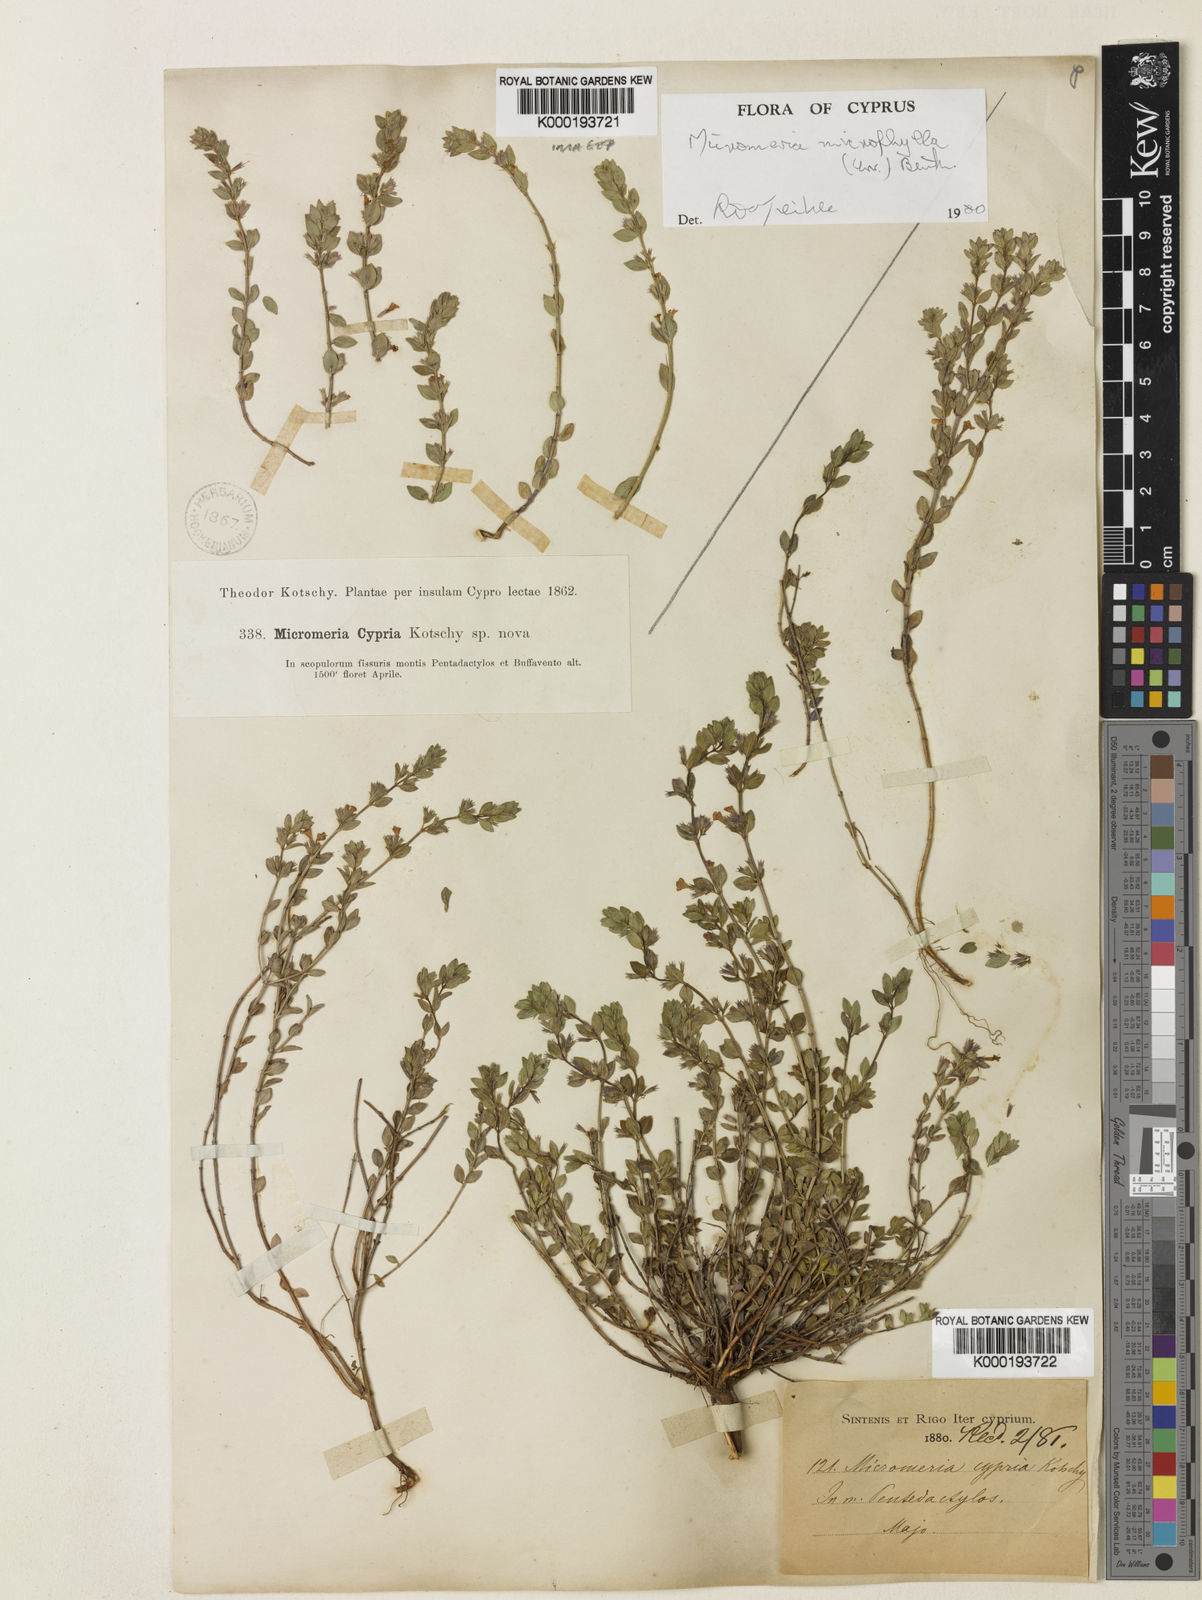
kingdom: Plantae
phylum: Tracheophyta
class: Magnoliopsida
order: Lamiales
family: Lamiaceae
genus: Micromeria
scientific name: Micromeria microphylla
